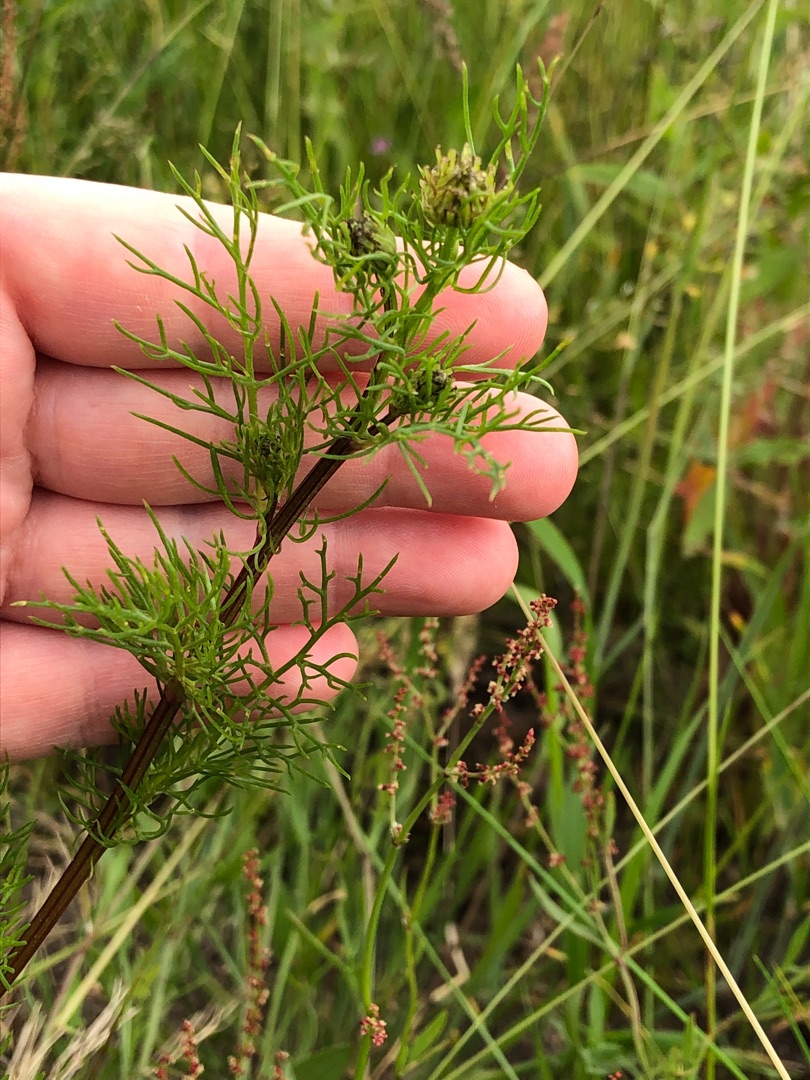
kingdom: Plantae
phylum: Tracheophyta
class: Magnoliopsida
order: Asterales
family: Asteraceae
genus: Tripleurospermum
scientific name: Tripleurospermum inodorum
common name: Lugtløs kamille
